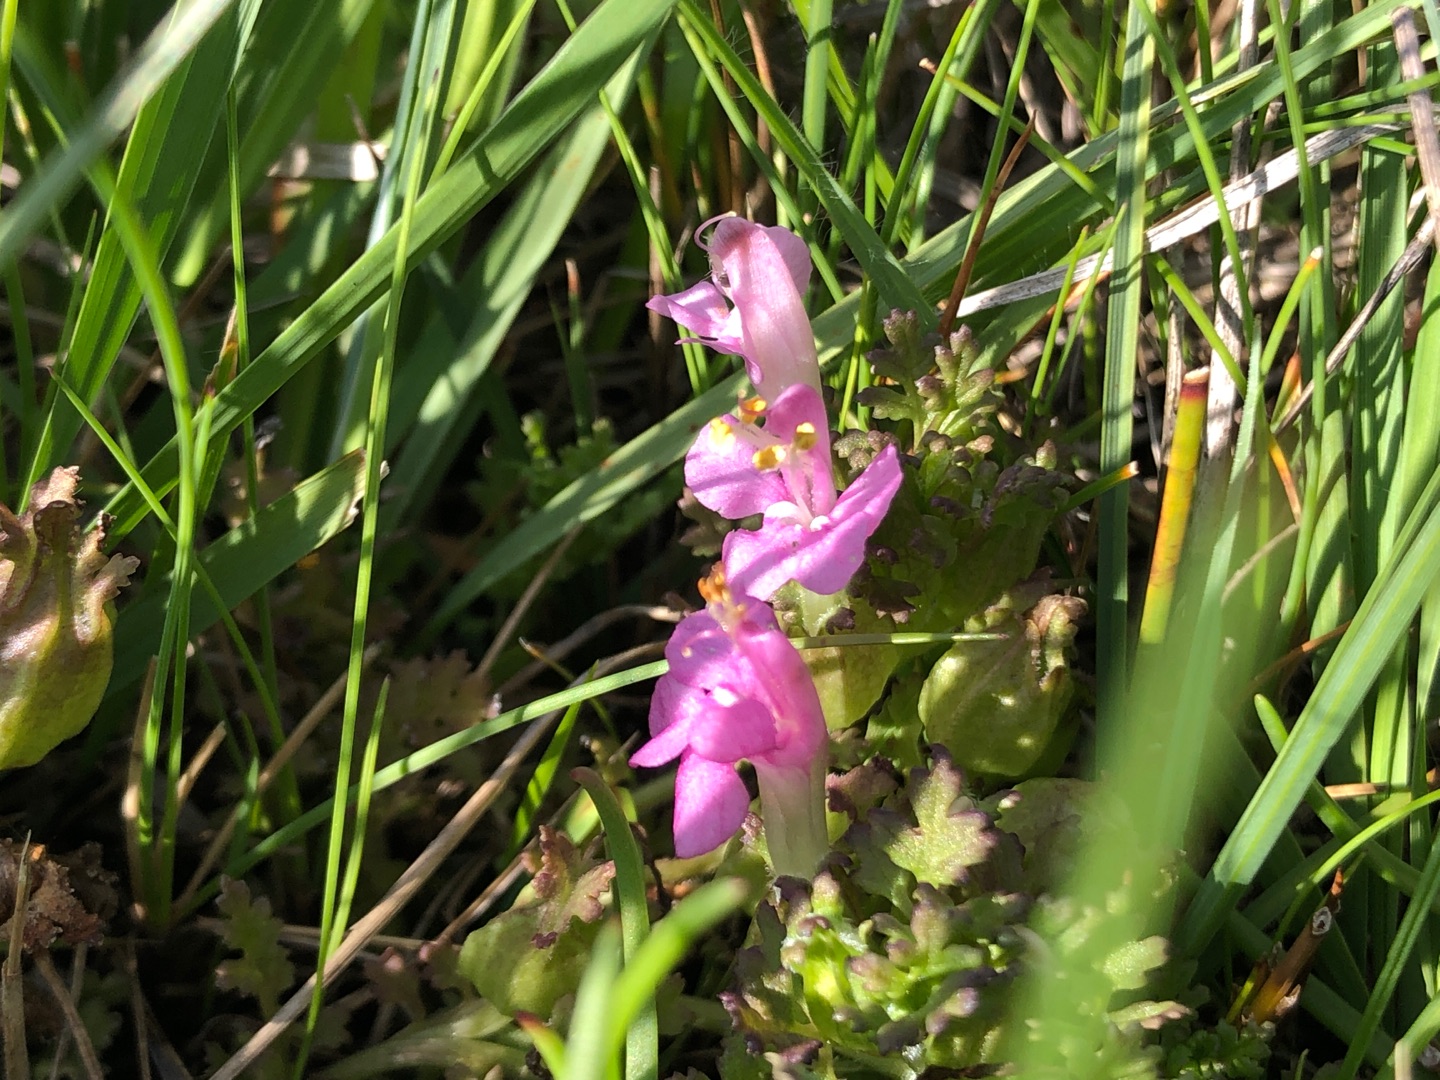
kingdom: Plantae
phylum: Tracheophyta
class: Magnoliopsida
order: Lamiales
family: Orobanchaceae
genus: Pedicularis
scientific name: Pedicularis palustris
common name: Eng-troldurt
